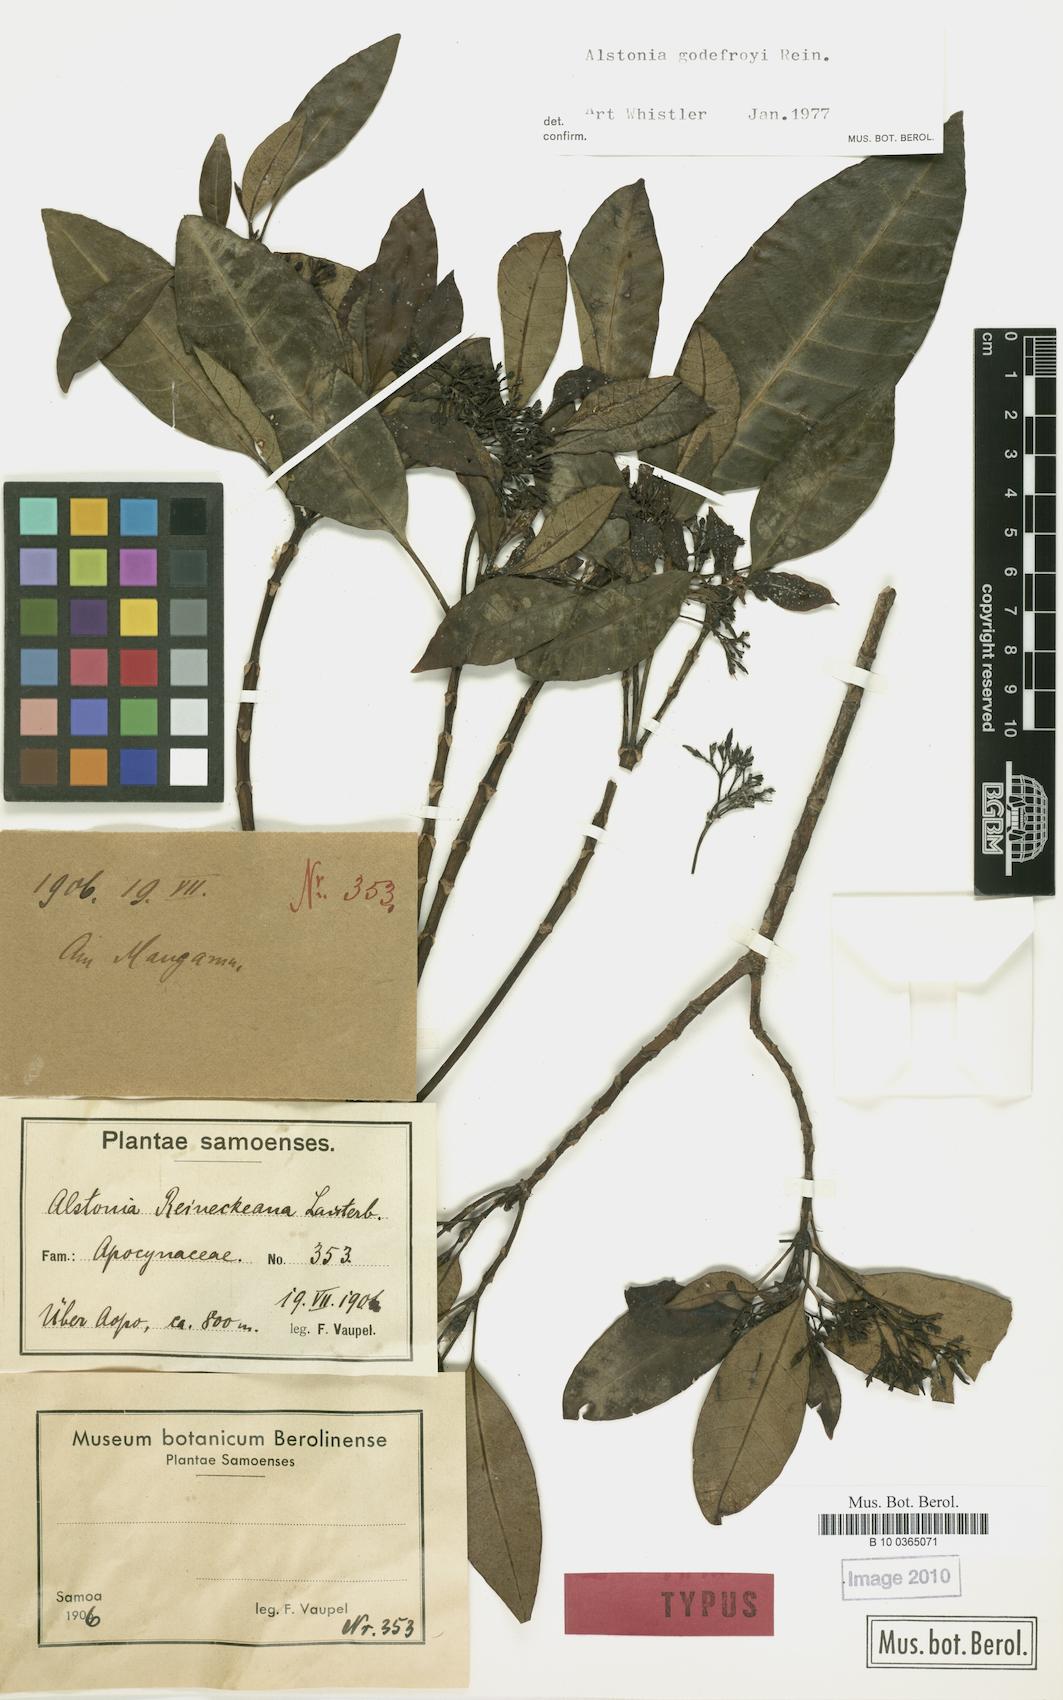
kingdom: Plantae
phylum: Tracheophyta
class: Magnoliopsida
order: Gentianales
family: Apocynaceae
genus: Alstonia
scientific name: Alstonia costata
